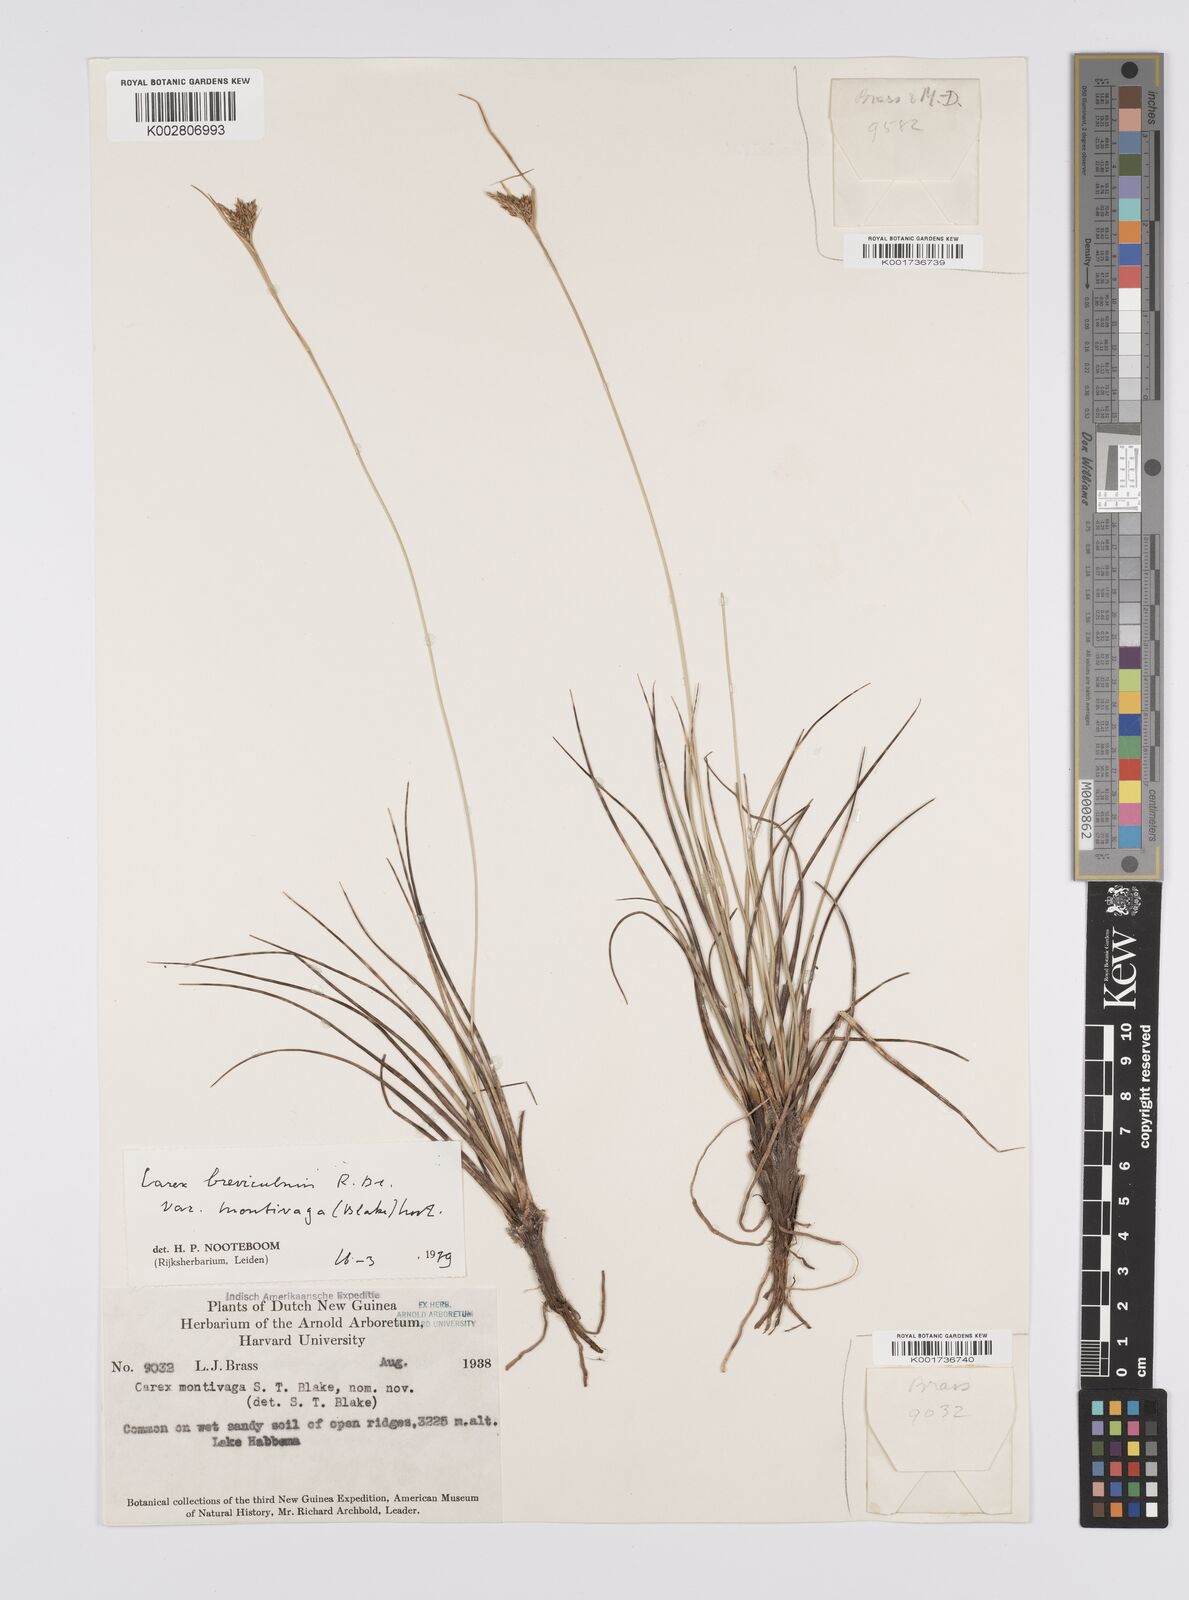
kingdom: Plantae
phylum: Tracheophyta
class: Liliopsida
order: Poales
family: Cyperaceae
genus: Carex
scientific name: Carex breviculmis
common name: Asian shortstem sedge
